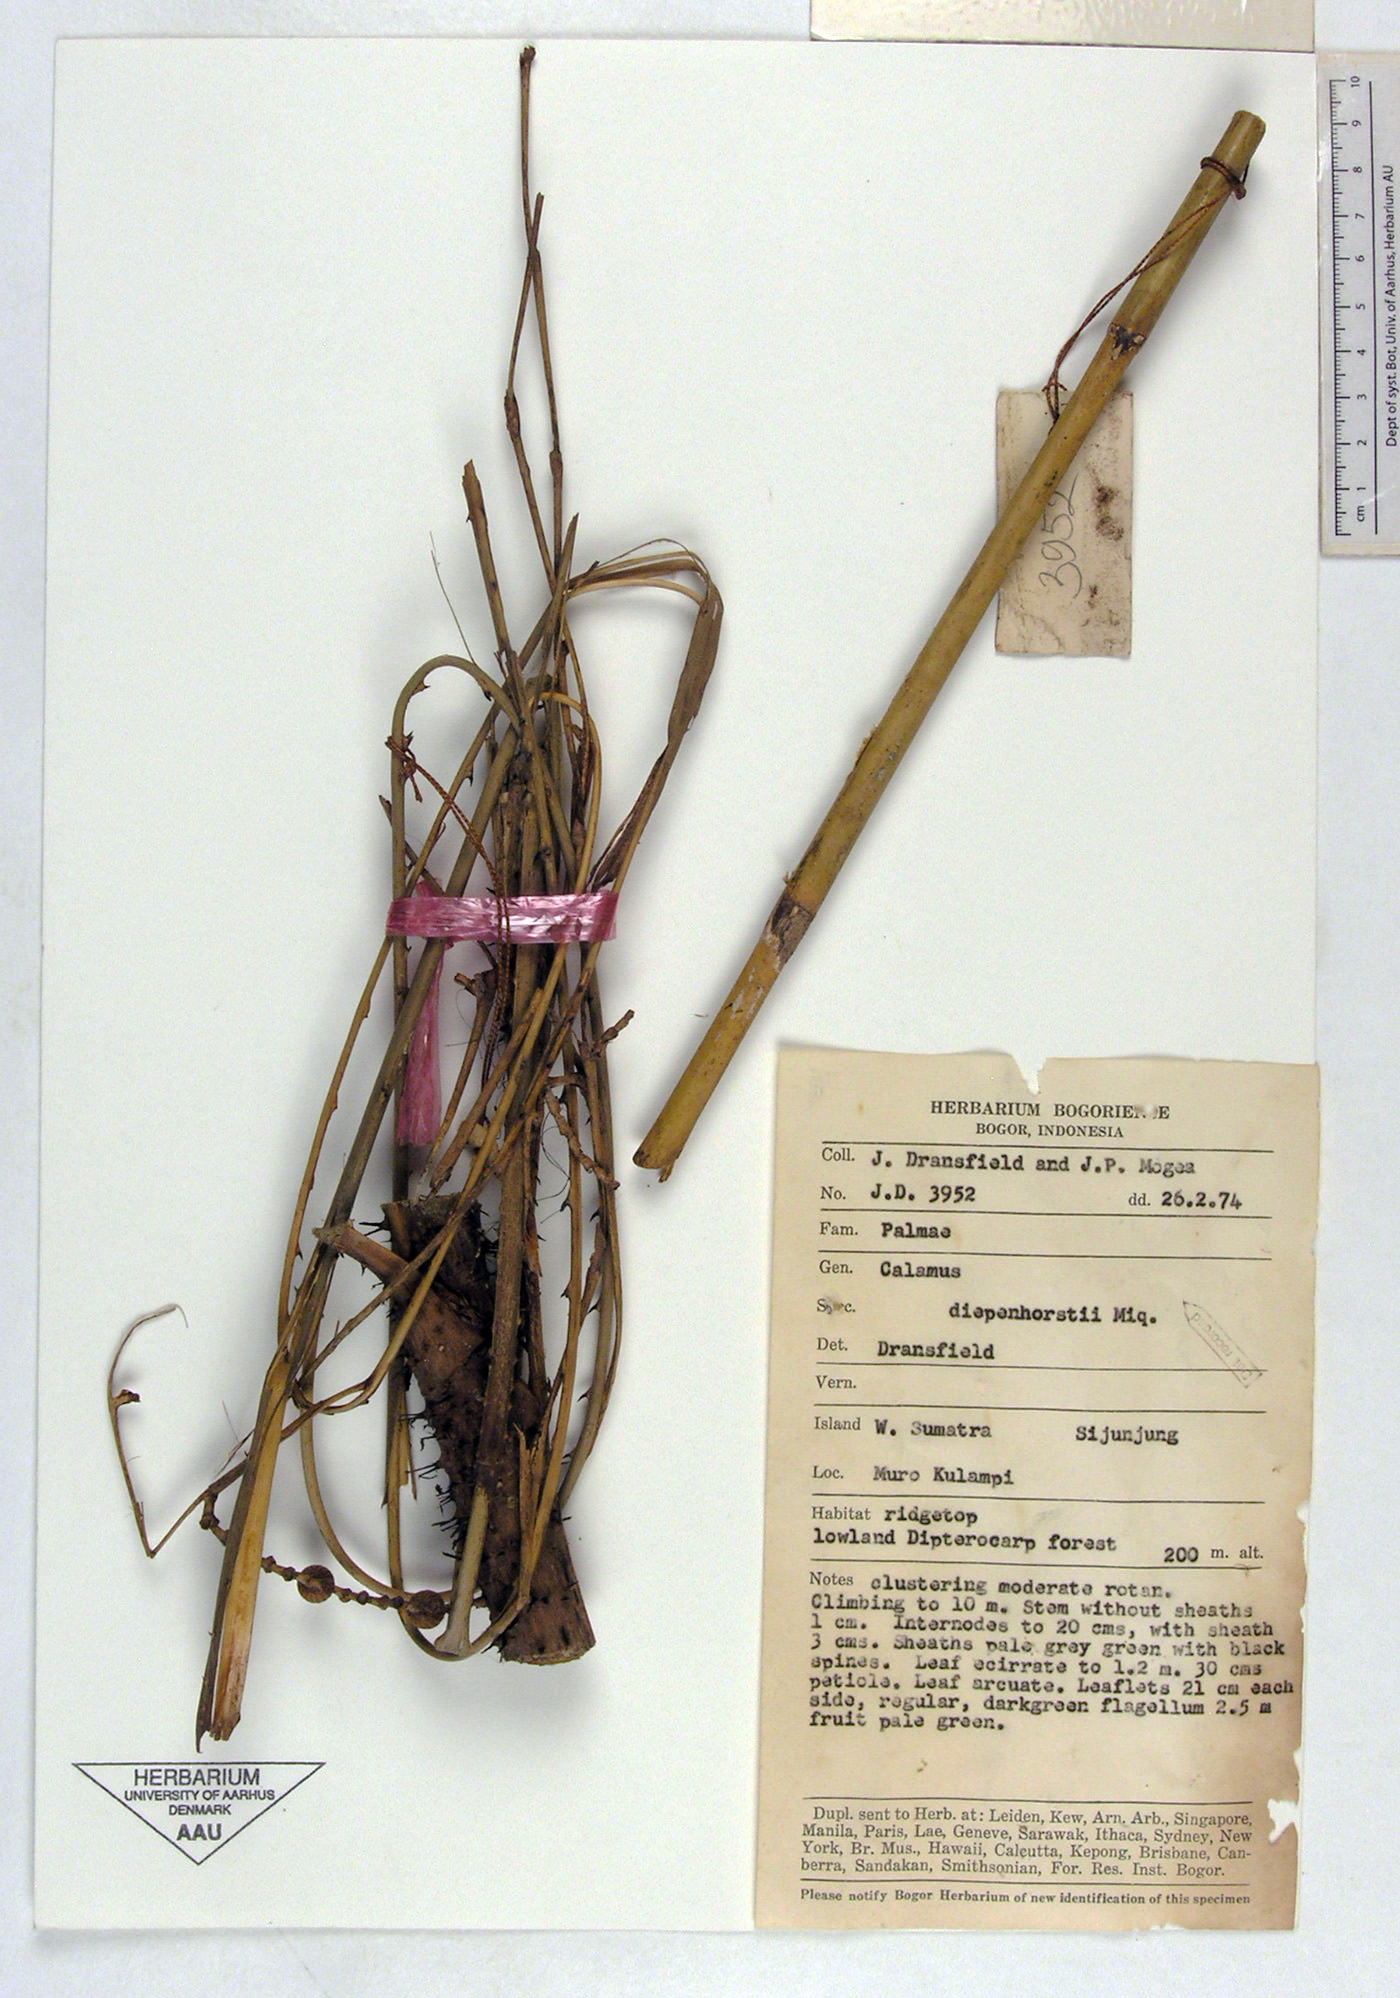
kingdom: Plantae
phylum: Tracheophyta
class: Liliopsida
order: Arecales
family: Arecaceae
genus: Calamus
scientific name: Calamus diepenhorstii
